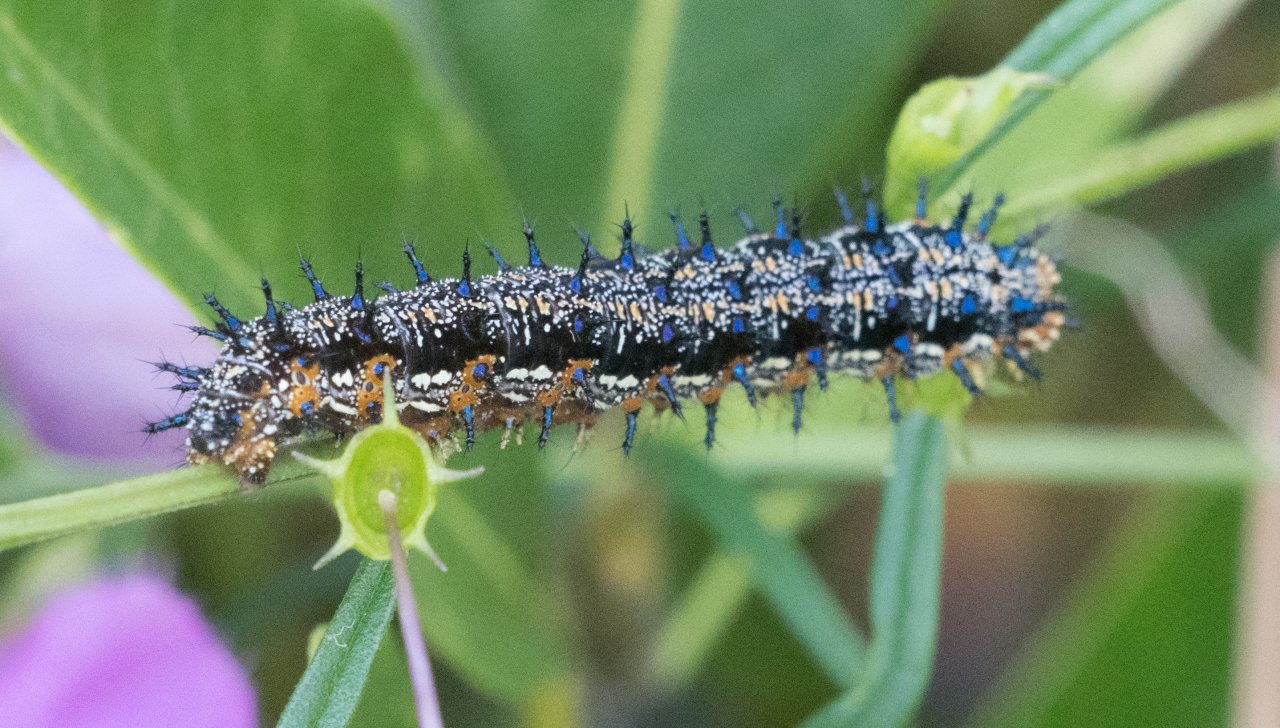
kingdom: Animalia
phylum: Arthropoda
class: Insecta
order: Lepidoptera
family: Nymphalidae
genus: Junonia
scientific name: Junonia coenia
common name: Common Buckeye
